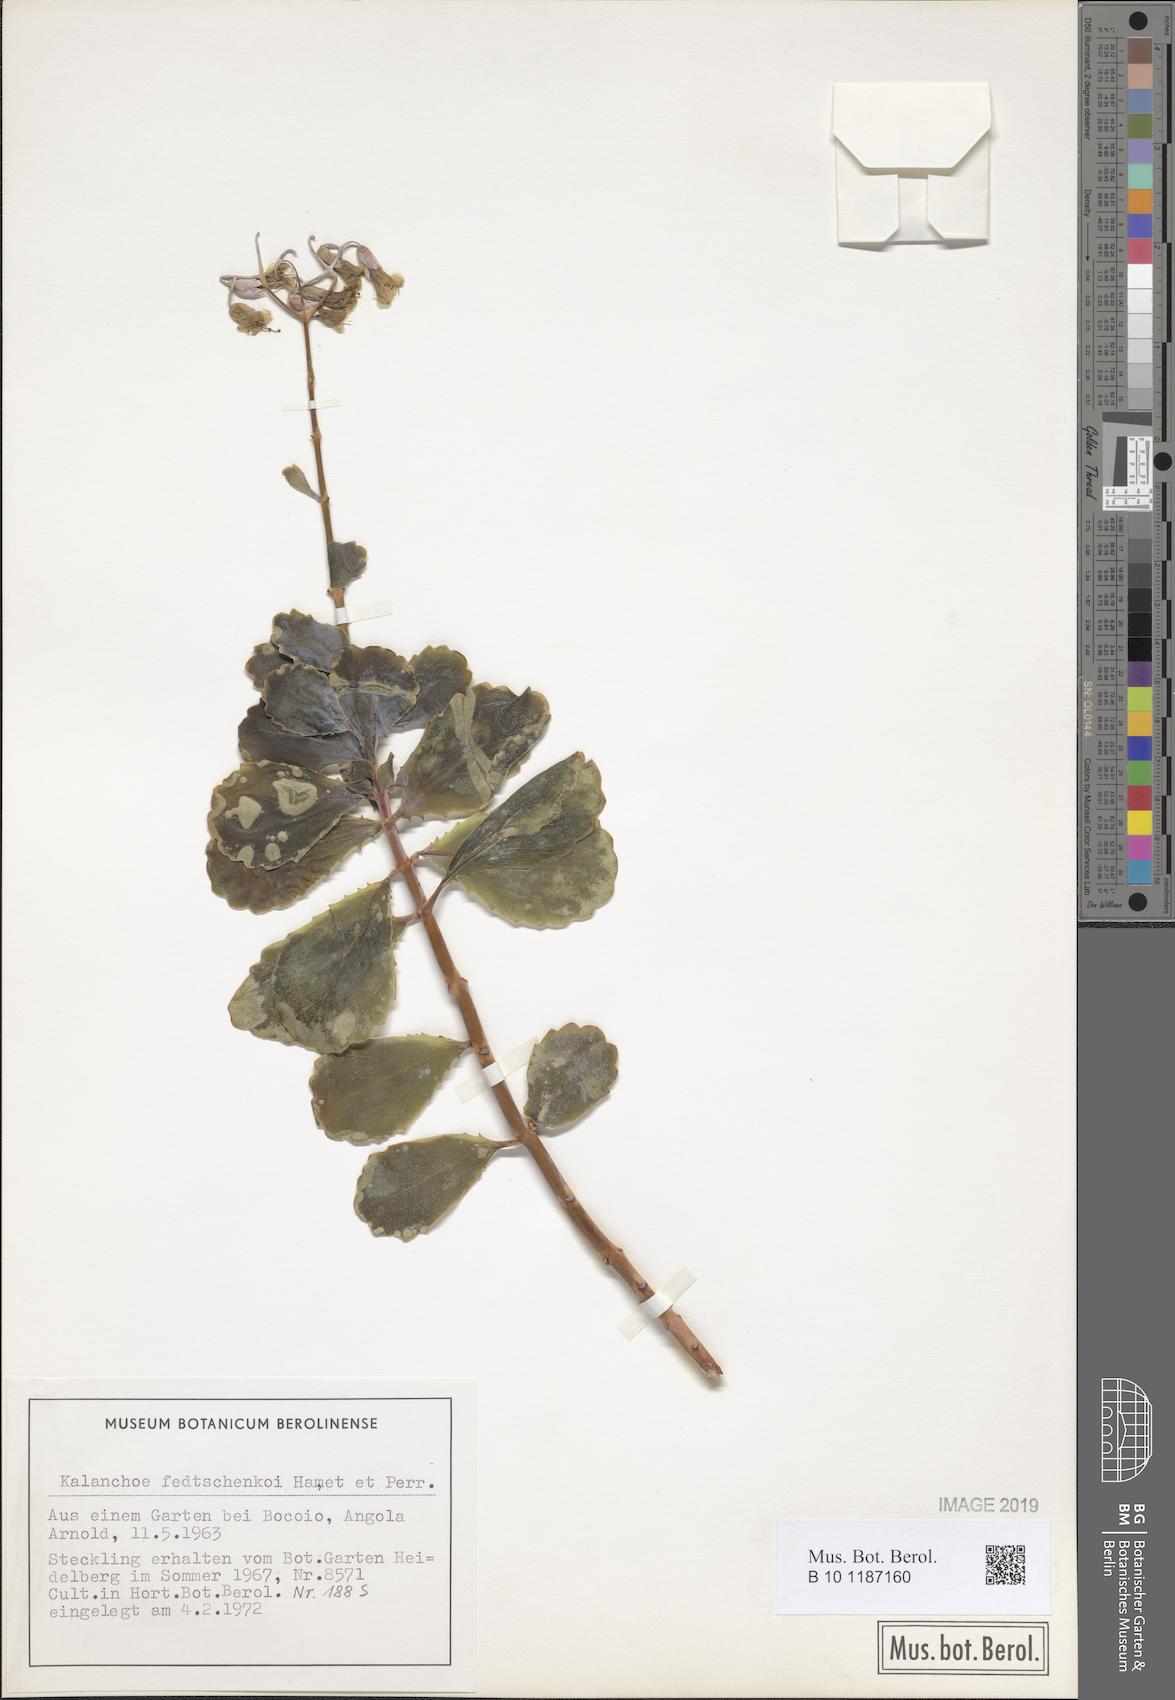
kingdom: Plantae
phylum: Tracheophyta
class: Magnoliopsida
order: Saxifragales
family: Crassulaceae
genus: Kalanchoe
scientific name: Kalanchoe fedtschenkoi
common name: Lavender scallops
